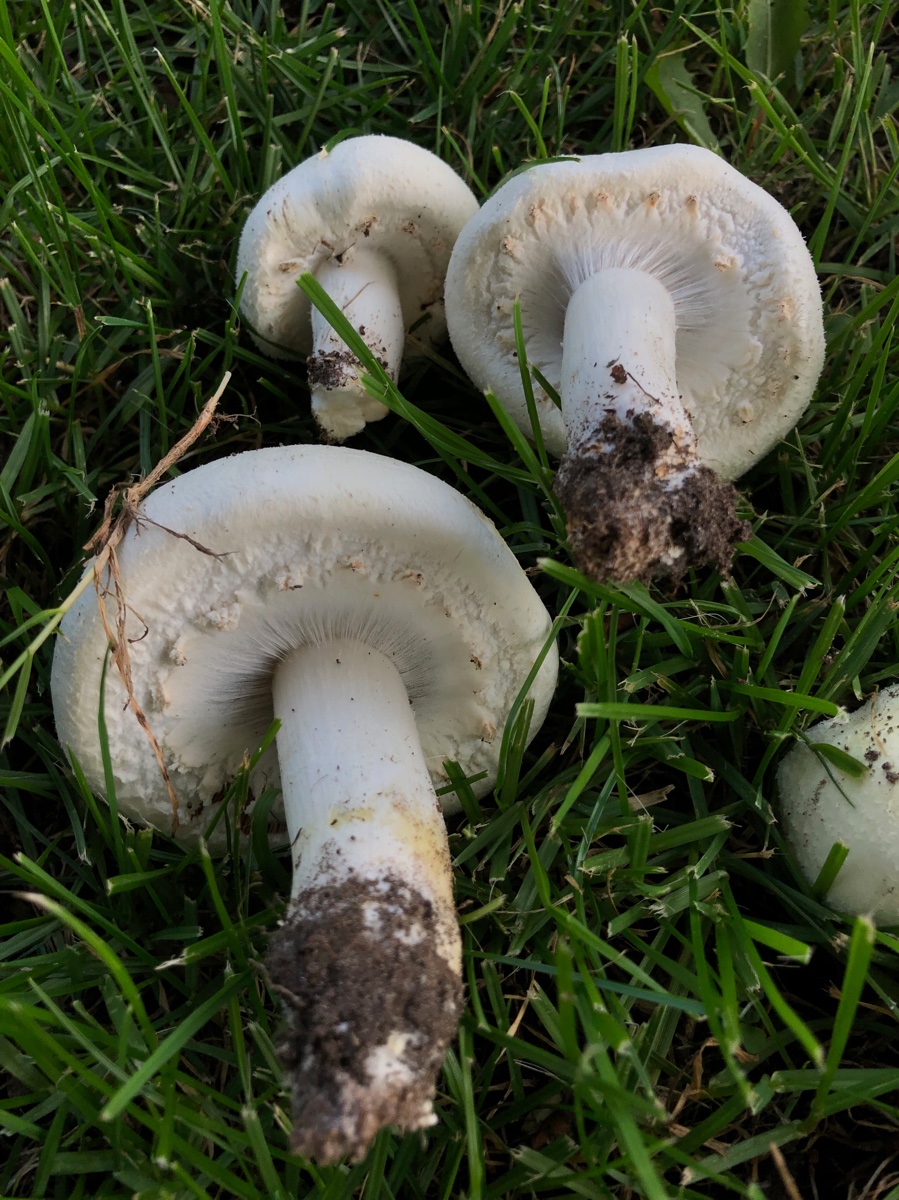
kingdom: Fungi
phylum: Basidiomycota
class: Agaricomycetes
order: Agaricales
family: Agaricaceae
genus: Agaricus
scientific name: Agaricus arvensis
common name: ager-champignon
